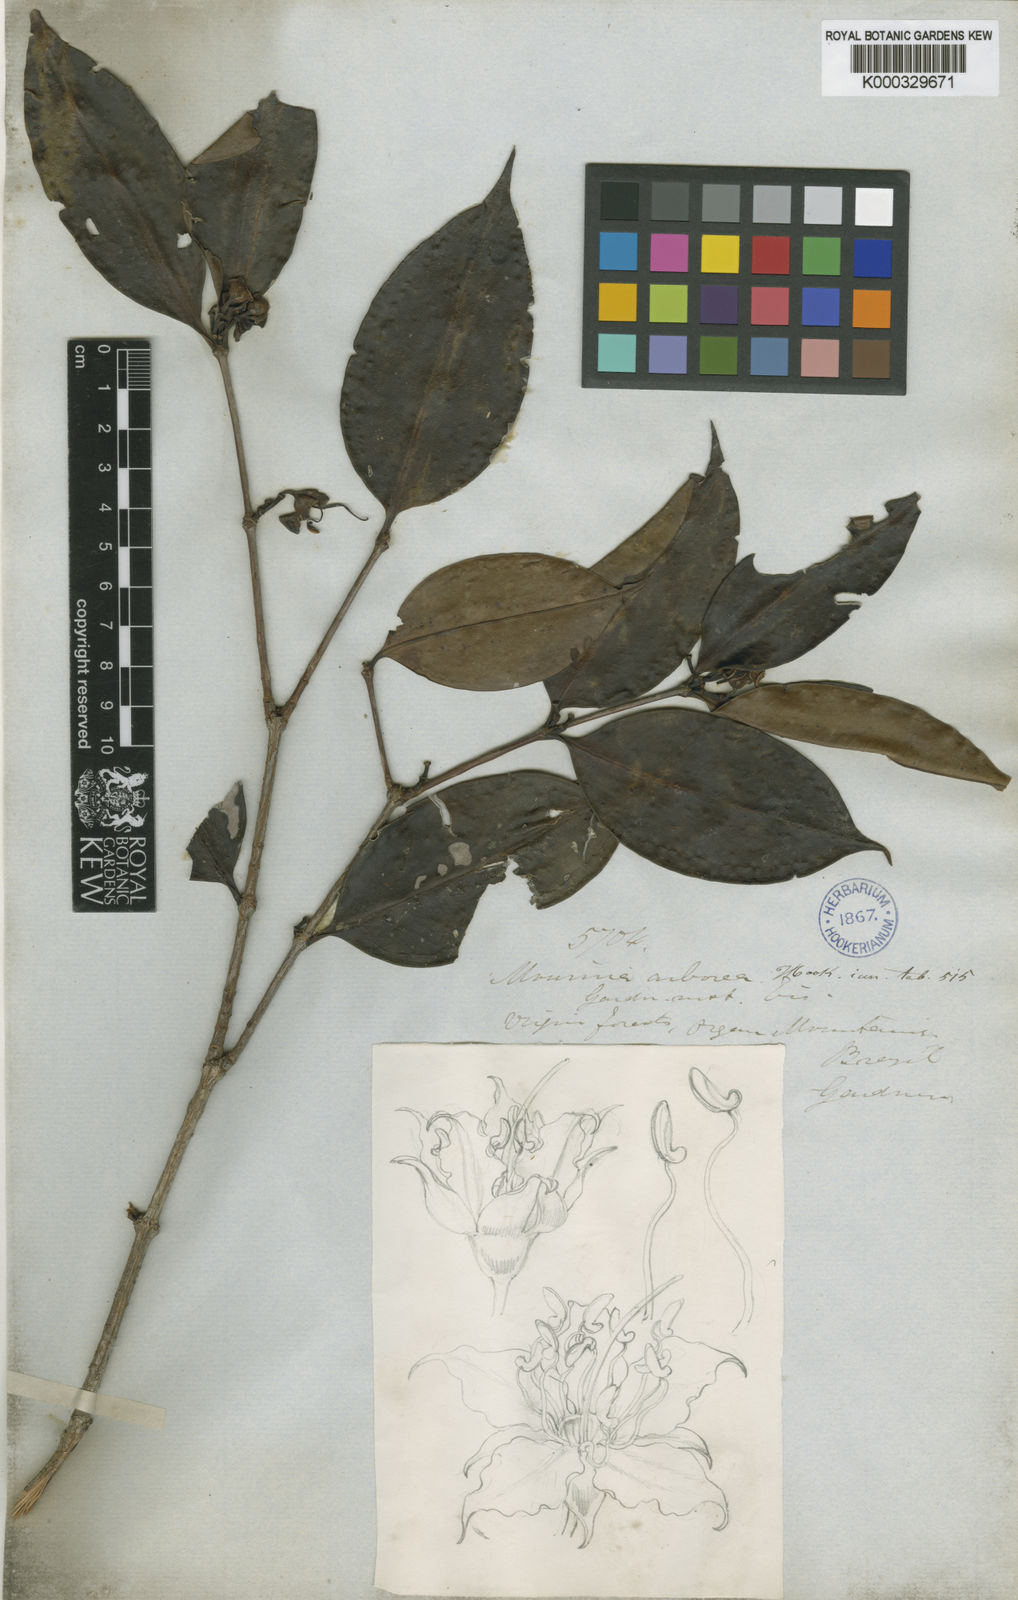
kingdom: Plantae
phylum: Tracheophyta
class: Magnoliopsida
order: Myrtales
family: Melastomataceae
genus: Mouriri
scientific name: Mouriri arborea
